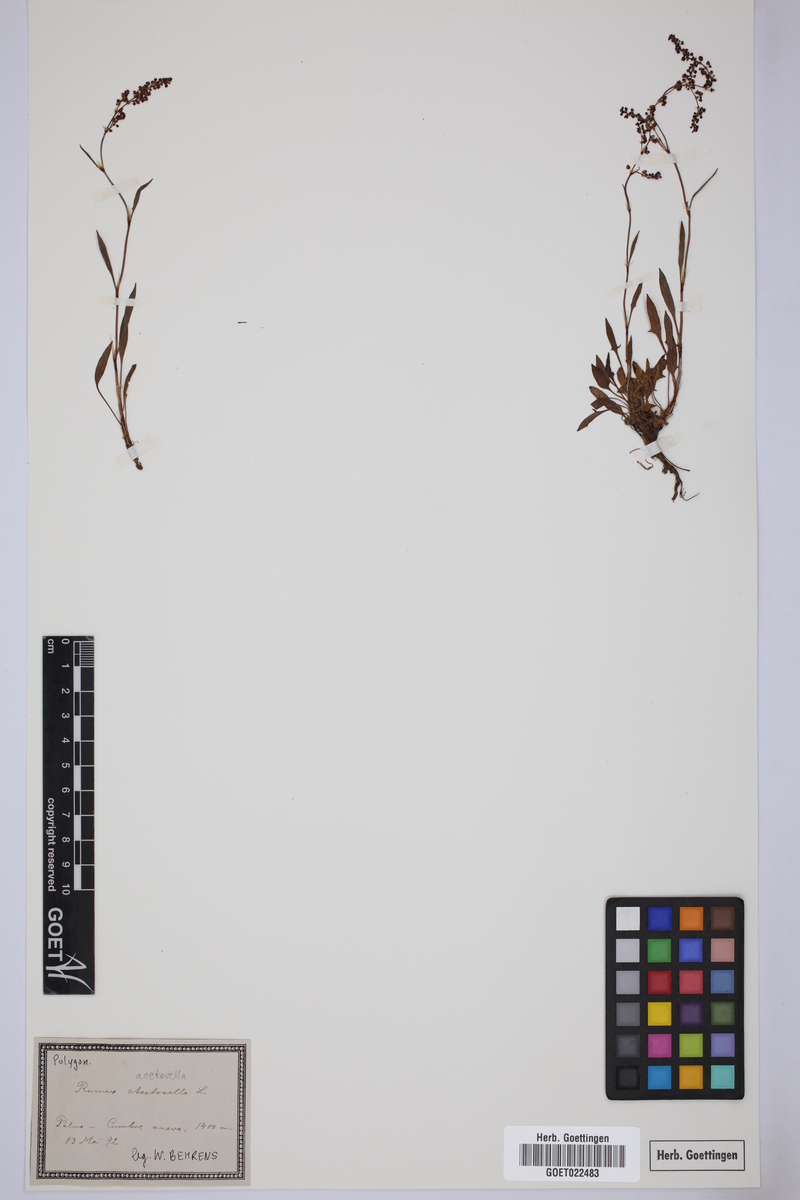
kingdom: Plantae
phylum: Tracheophyta
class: Magnoliopsida
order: Caryophyllales
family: Polygonaceae
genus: Rumex
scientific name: Rumex acetosella
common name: Common sheep sorrel
